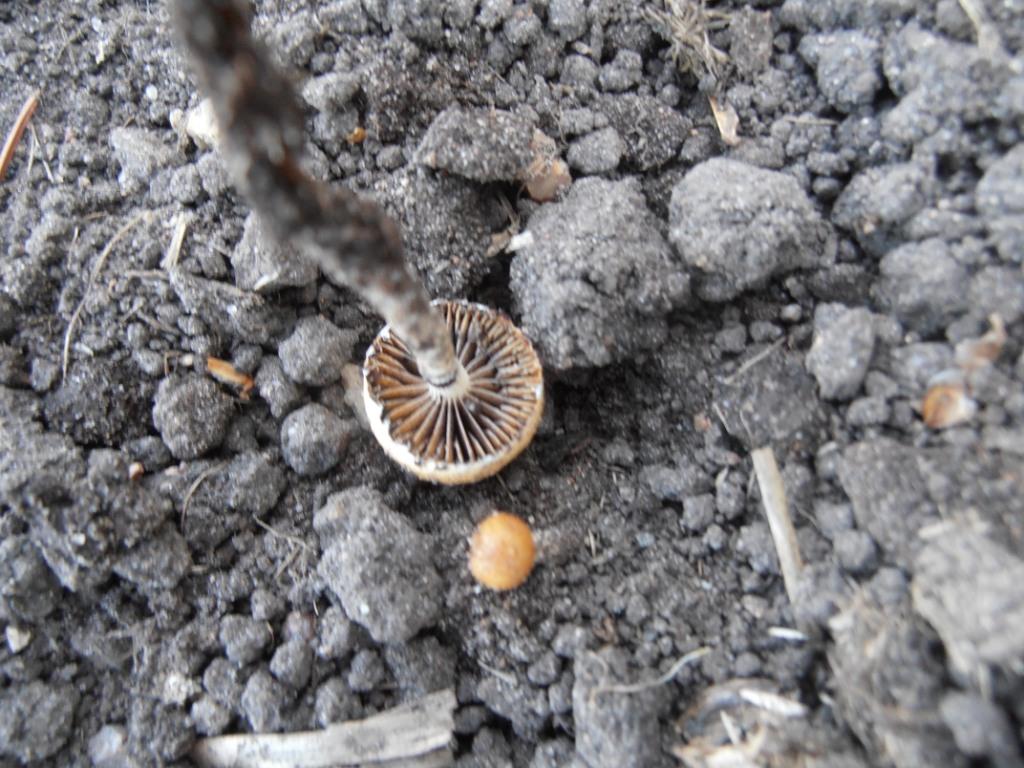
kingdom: Fungi
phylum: Basidiomycota
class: Agaricomycetes
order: Agaricales
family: Strophariaceae
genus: Deconica
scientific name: Deconica merdaria
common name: møg-stråhat
